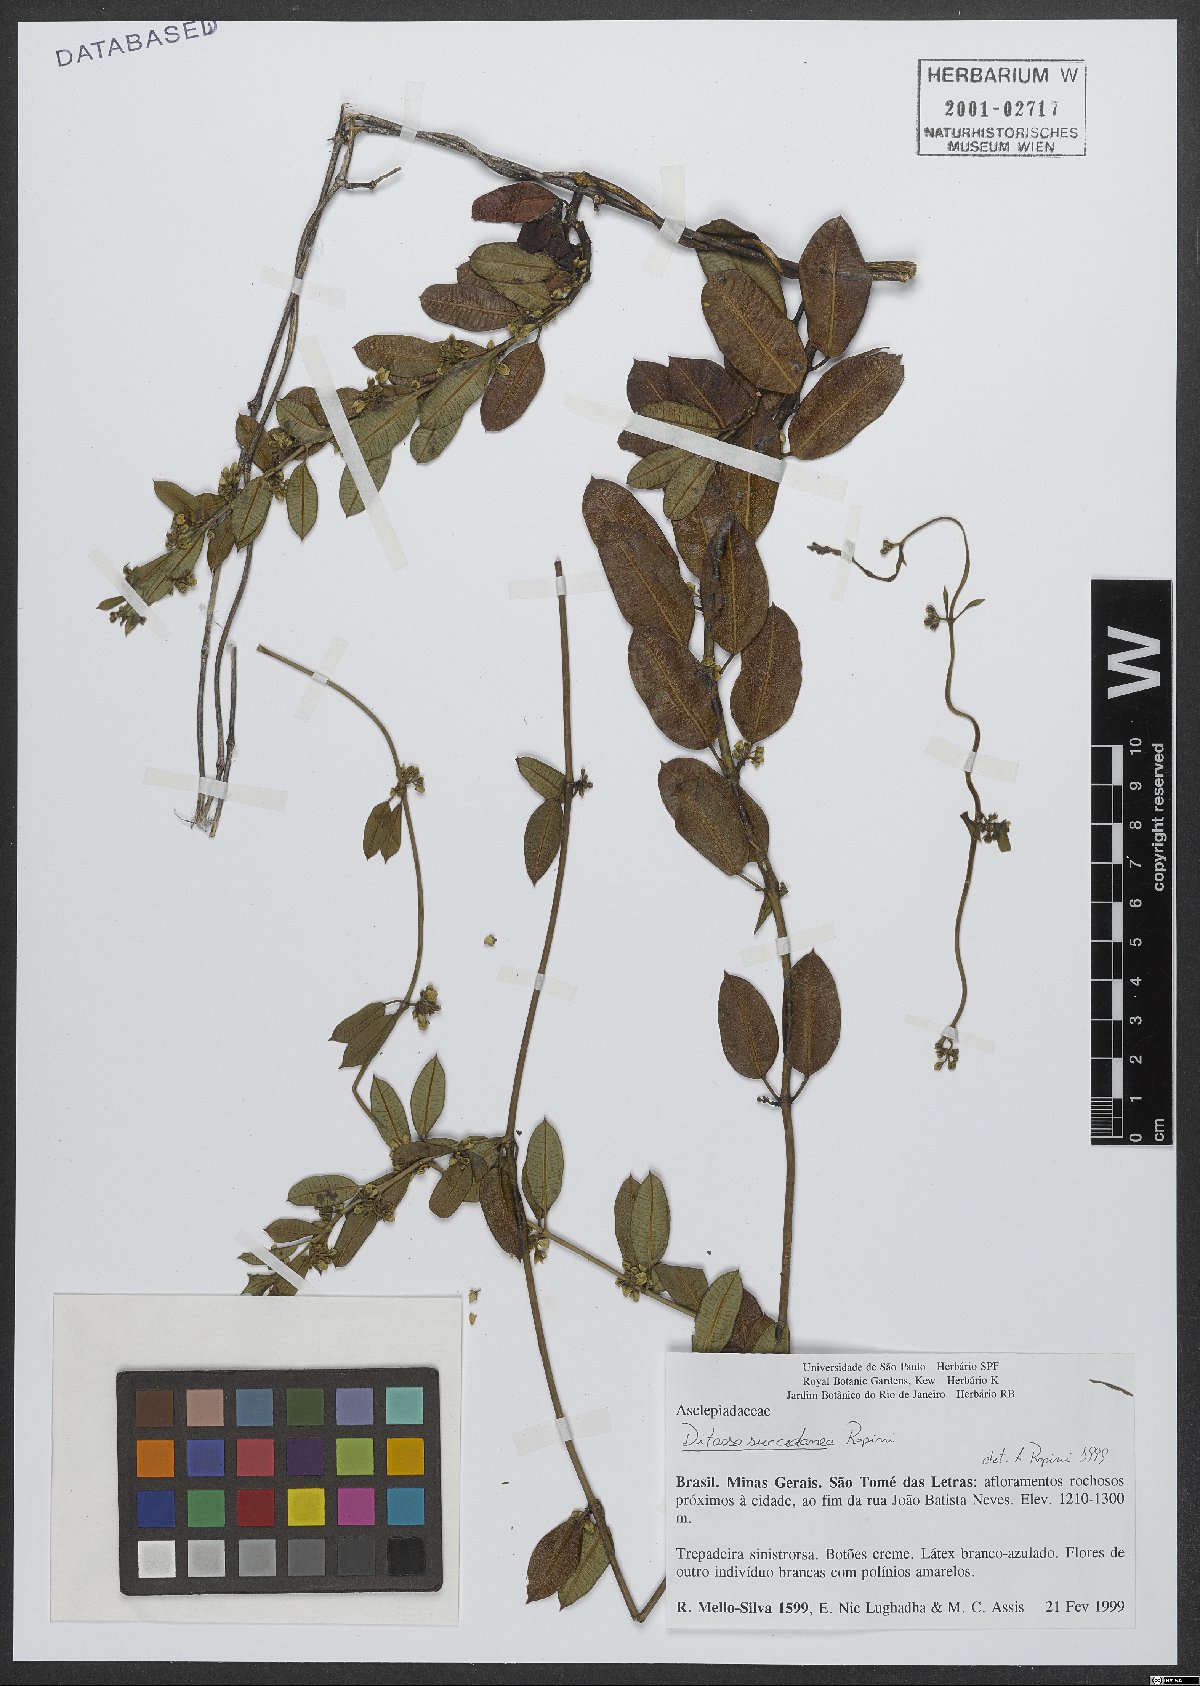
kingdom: Plantae
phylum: Tracheophyta
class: Magnoliopsida
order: Gentianales
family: Apocynaceae
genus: Ditassa
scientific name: Ditassa succedanea
